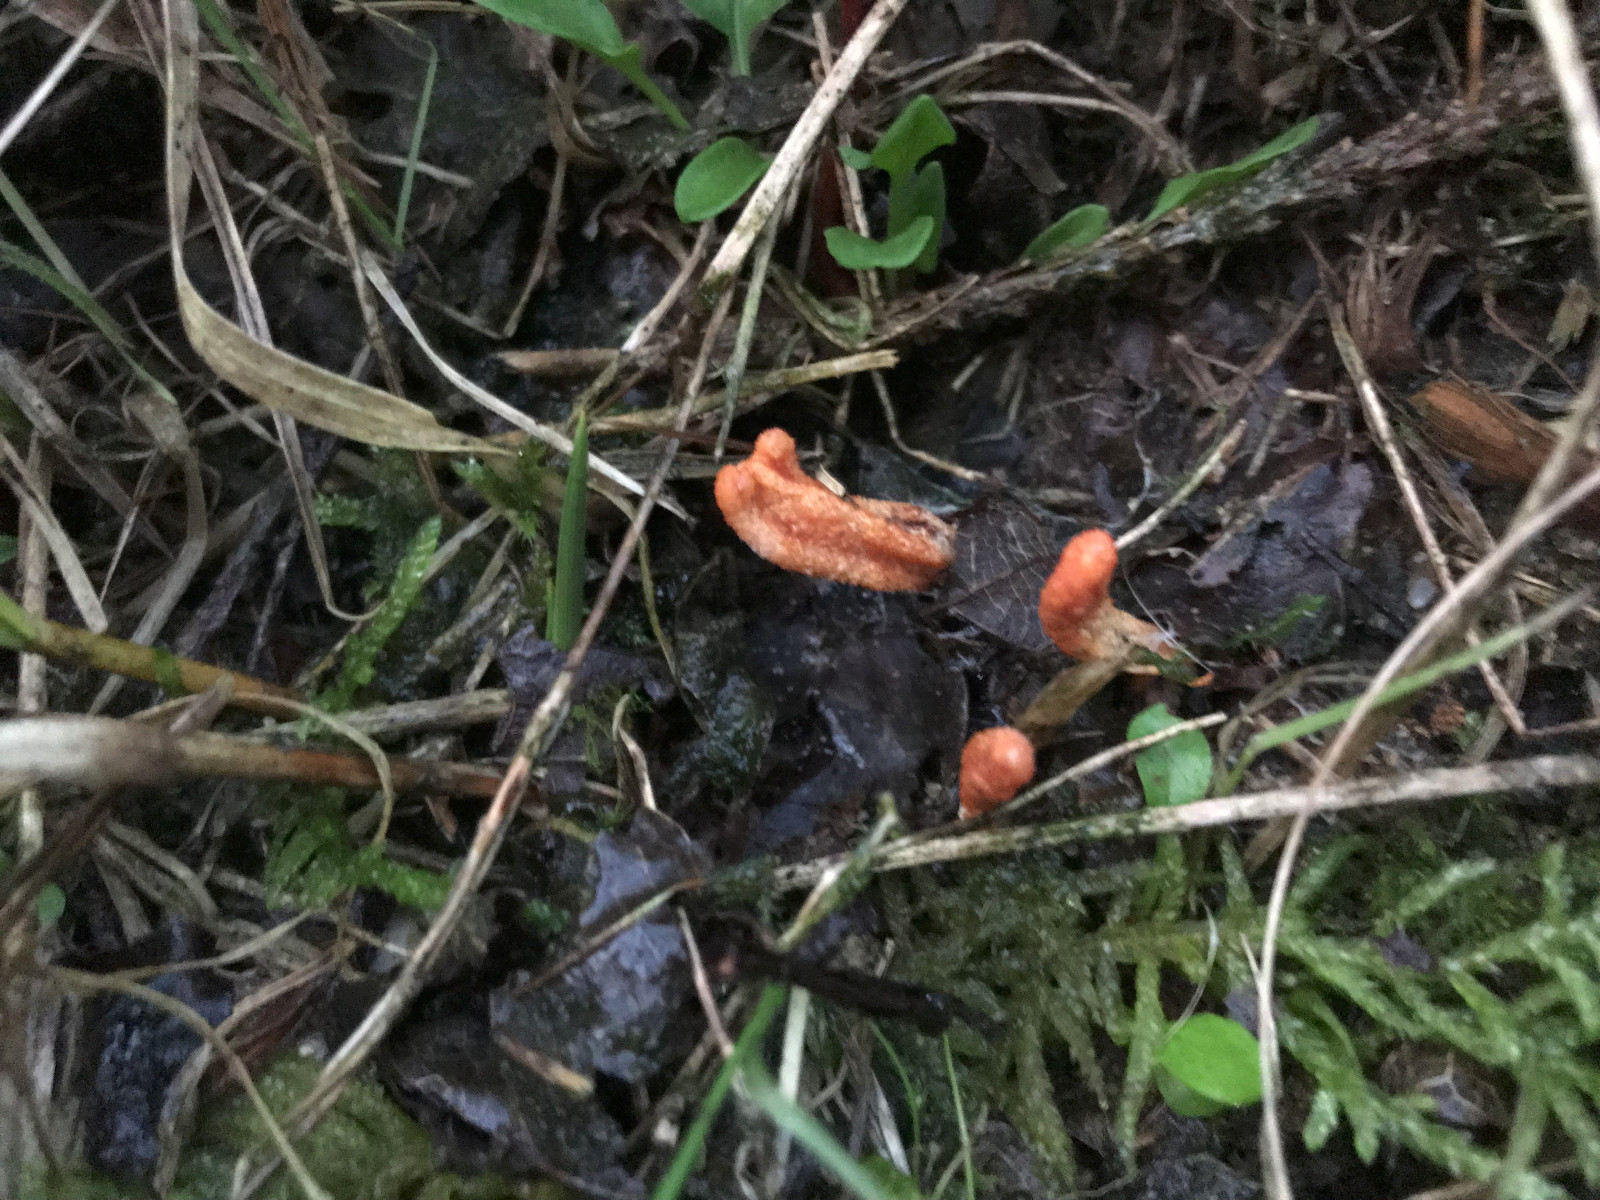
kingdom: Fungi
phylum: Ascomycota
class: Sordariomycetes
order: Hypocreales
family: Cordycipitaceae
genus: Cordyceps
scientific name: Cordyceps militaris
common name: puppe-snyltekølle
